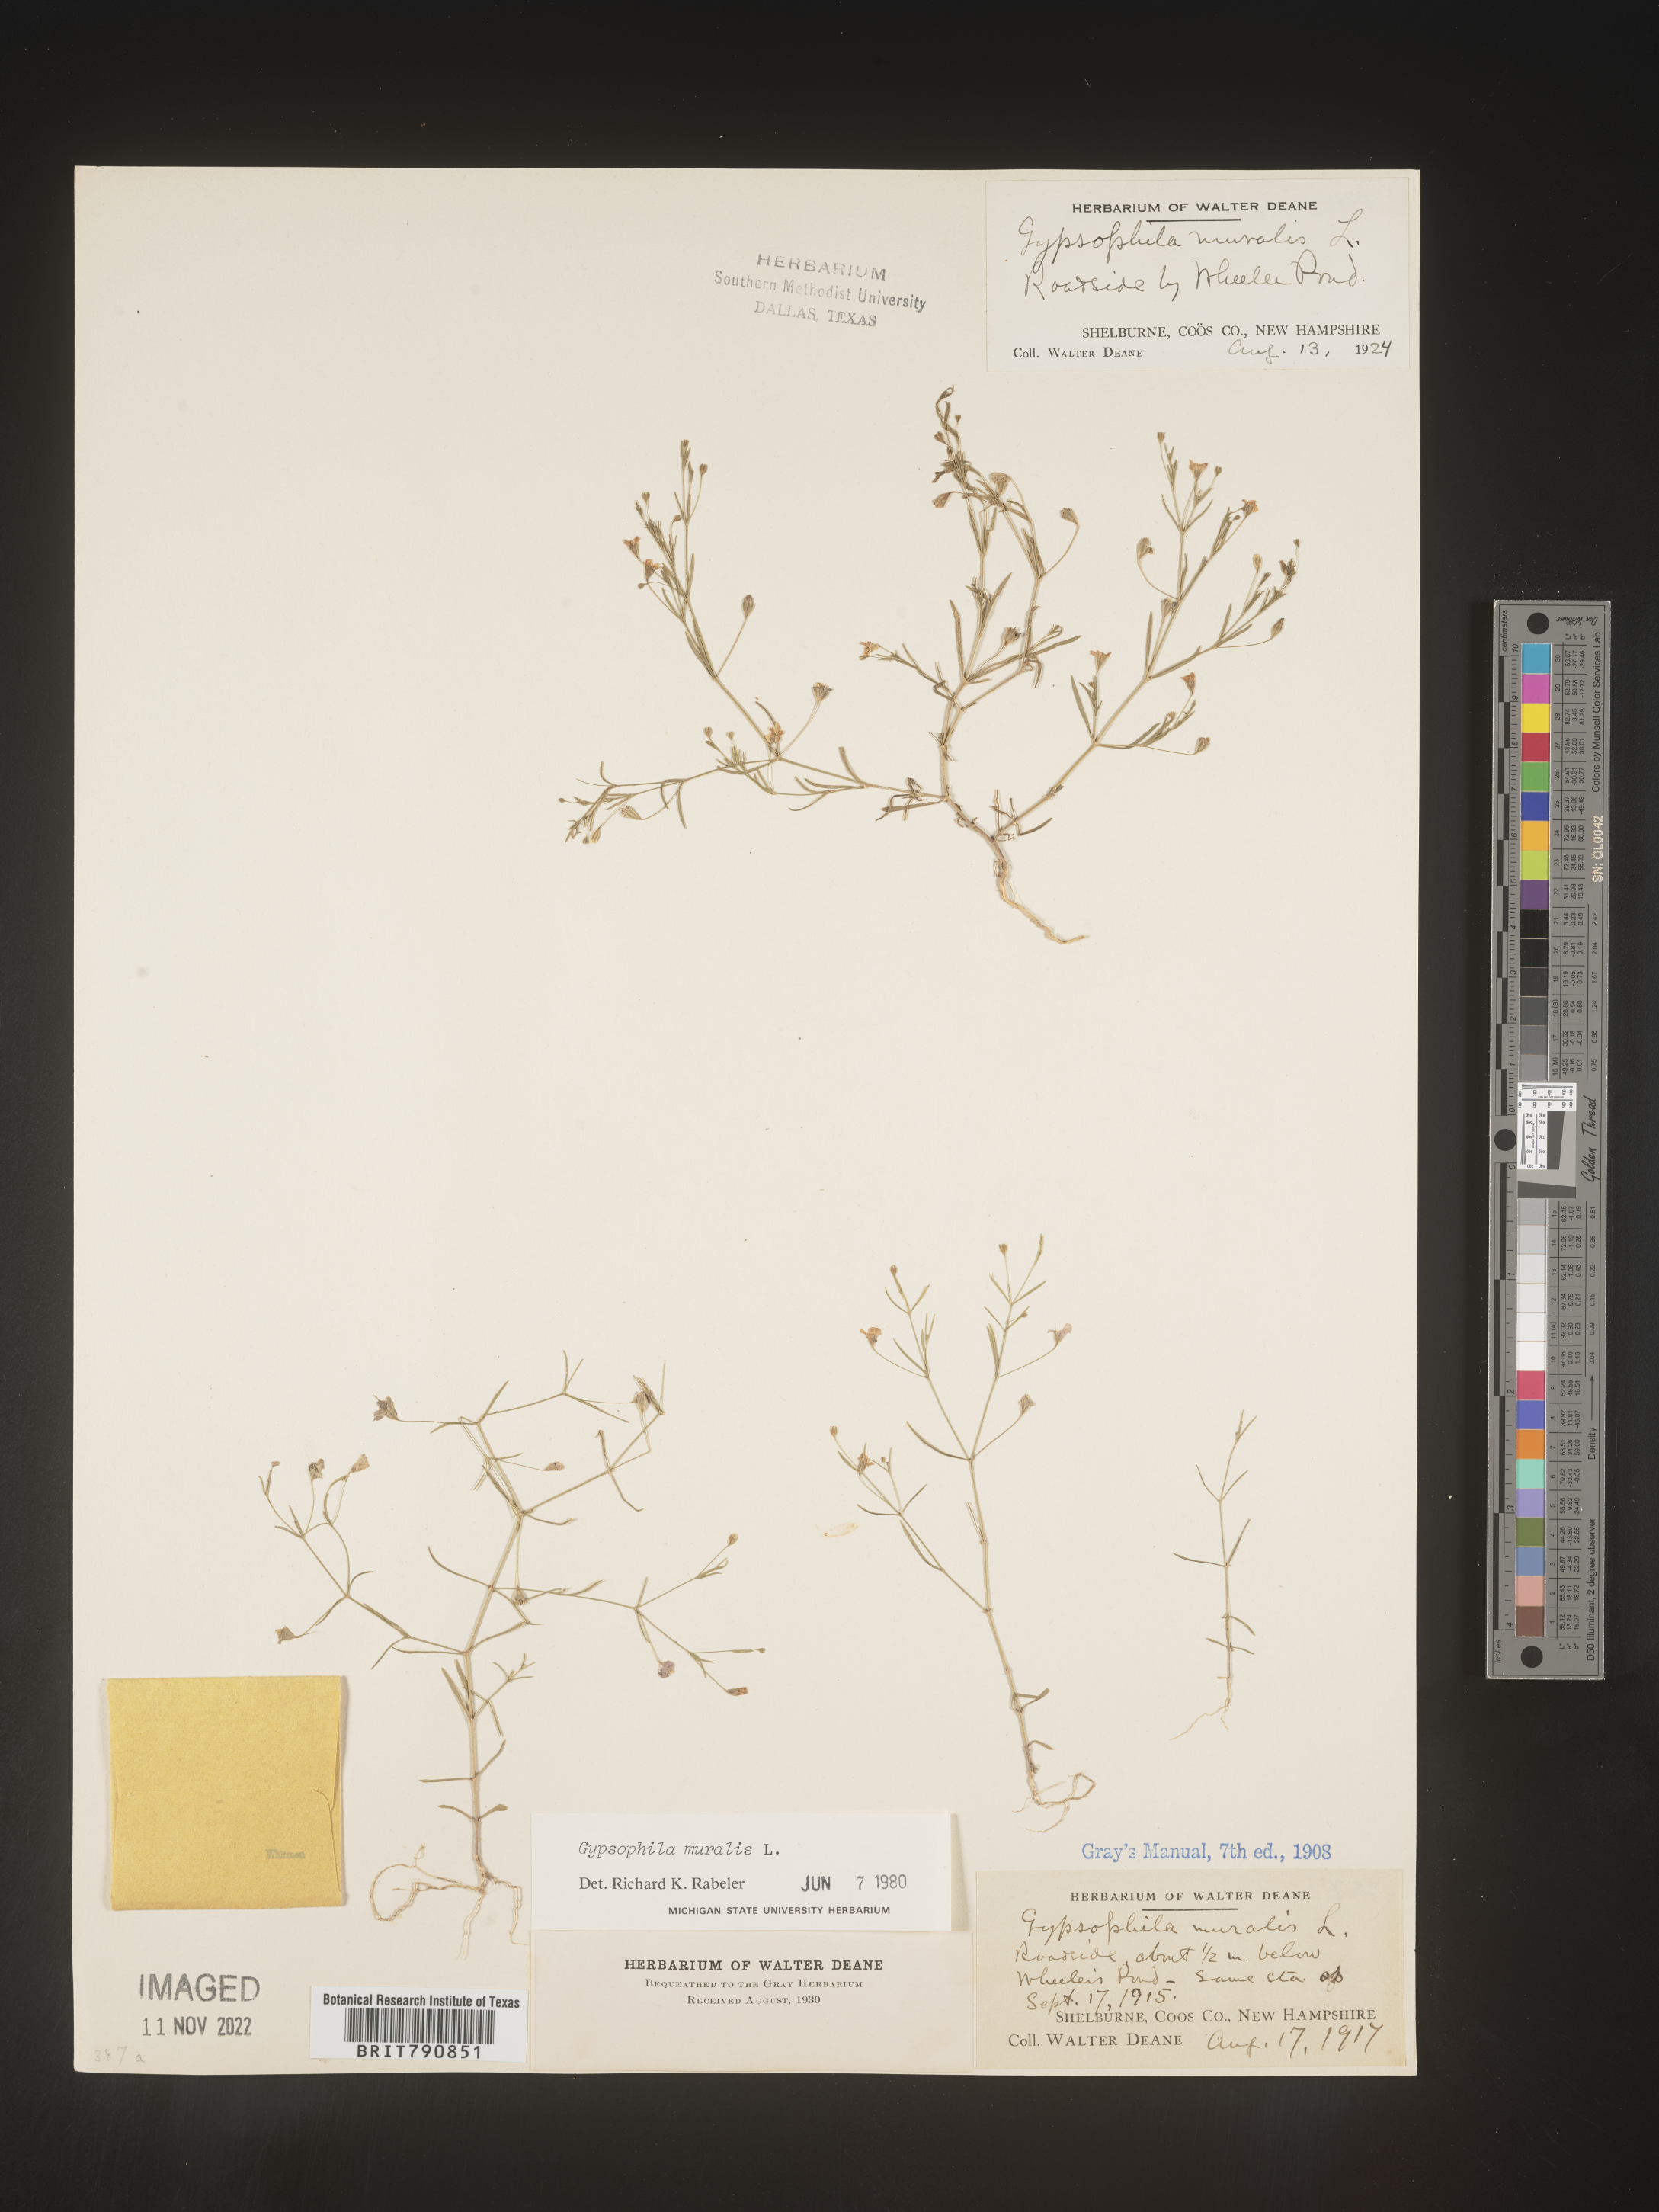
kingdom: Plantae
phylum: Tracheophyta
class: Magnoliopsida
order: Caryophyllales
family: Caryophyllaceae
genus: Gypsophila
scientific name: Gypsophila
